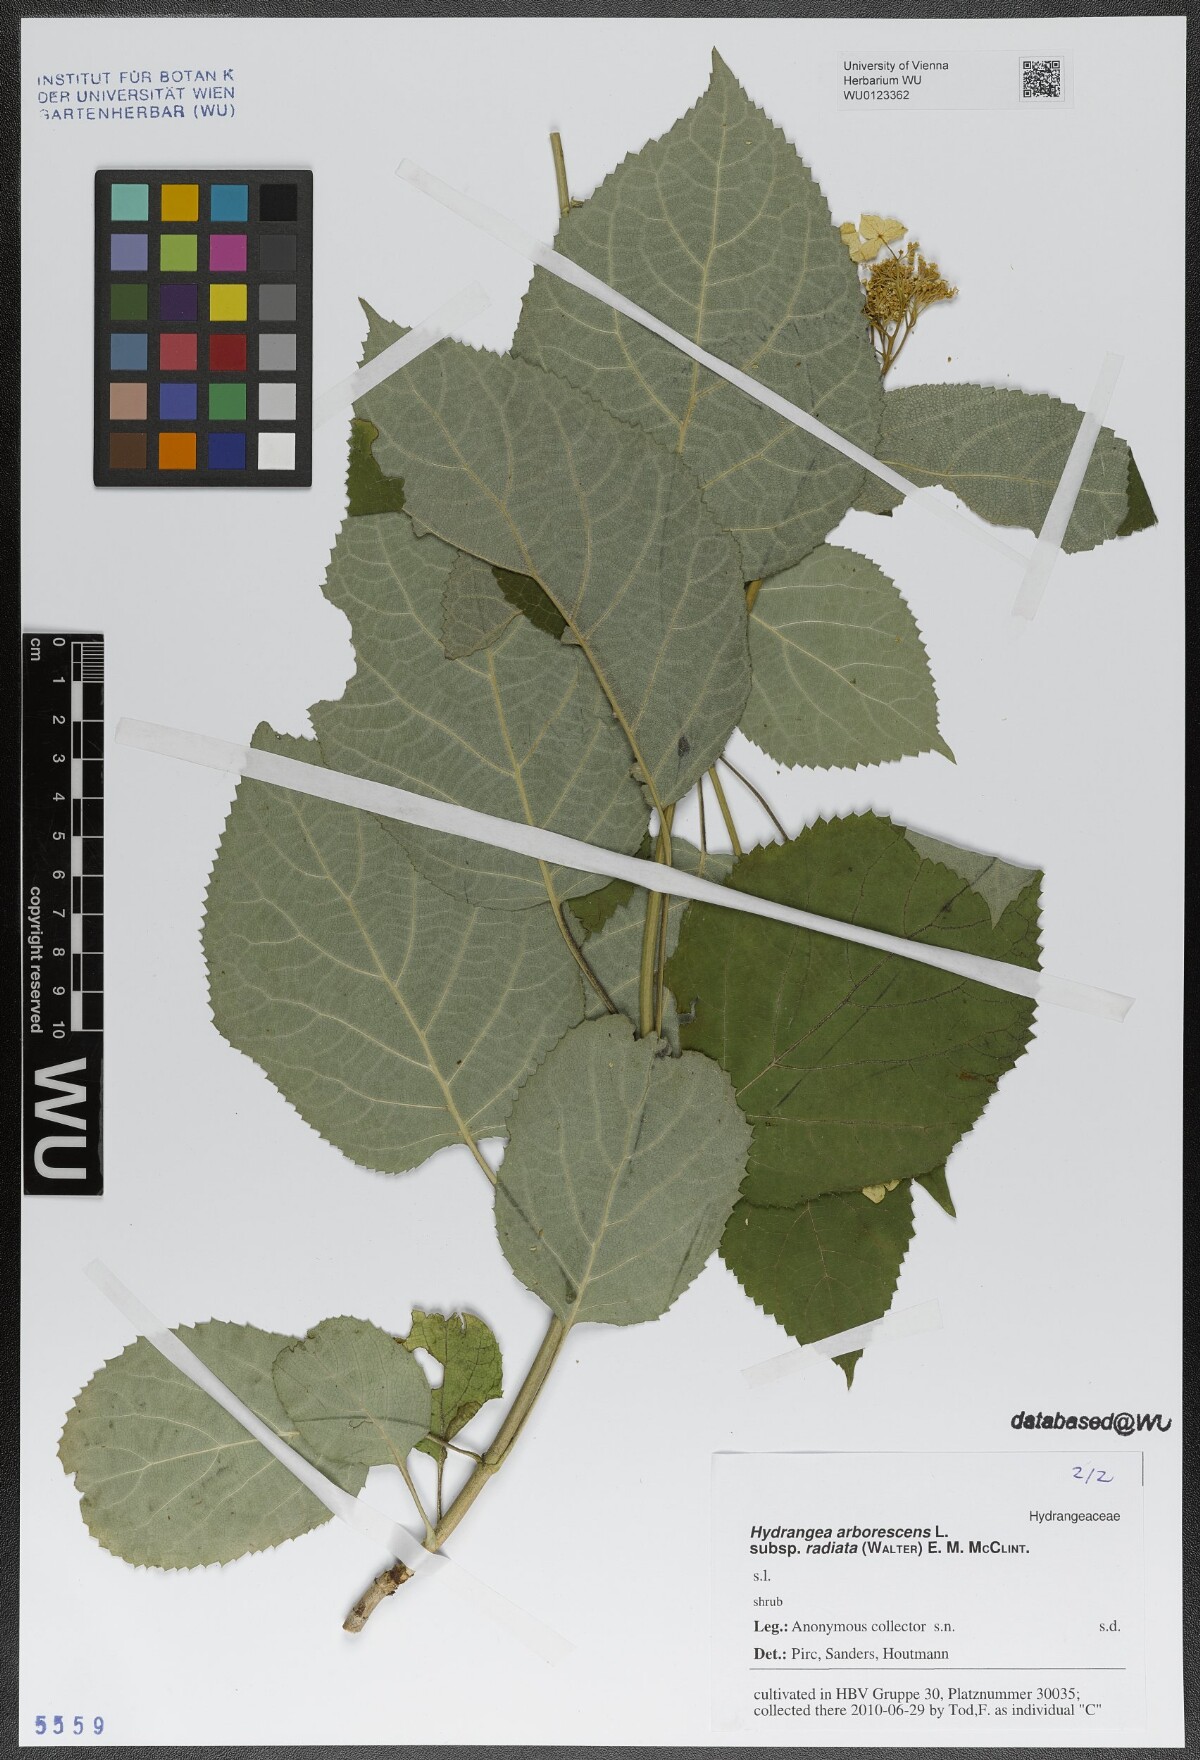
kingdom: Plantae
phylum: Tracheophyta
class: Magnoliopsida
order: Cornales
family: Hydrangeaceae
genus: Hydrangea
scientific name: Hydrangea radiata
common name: Silverleaf hydrangea
